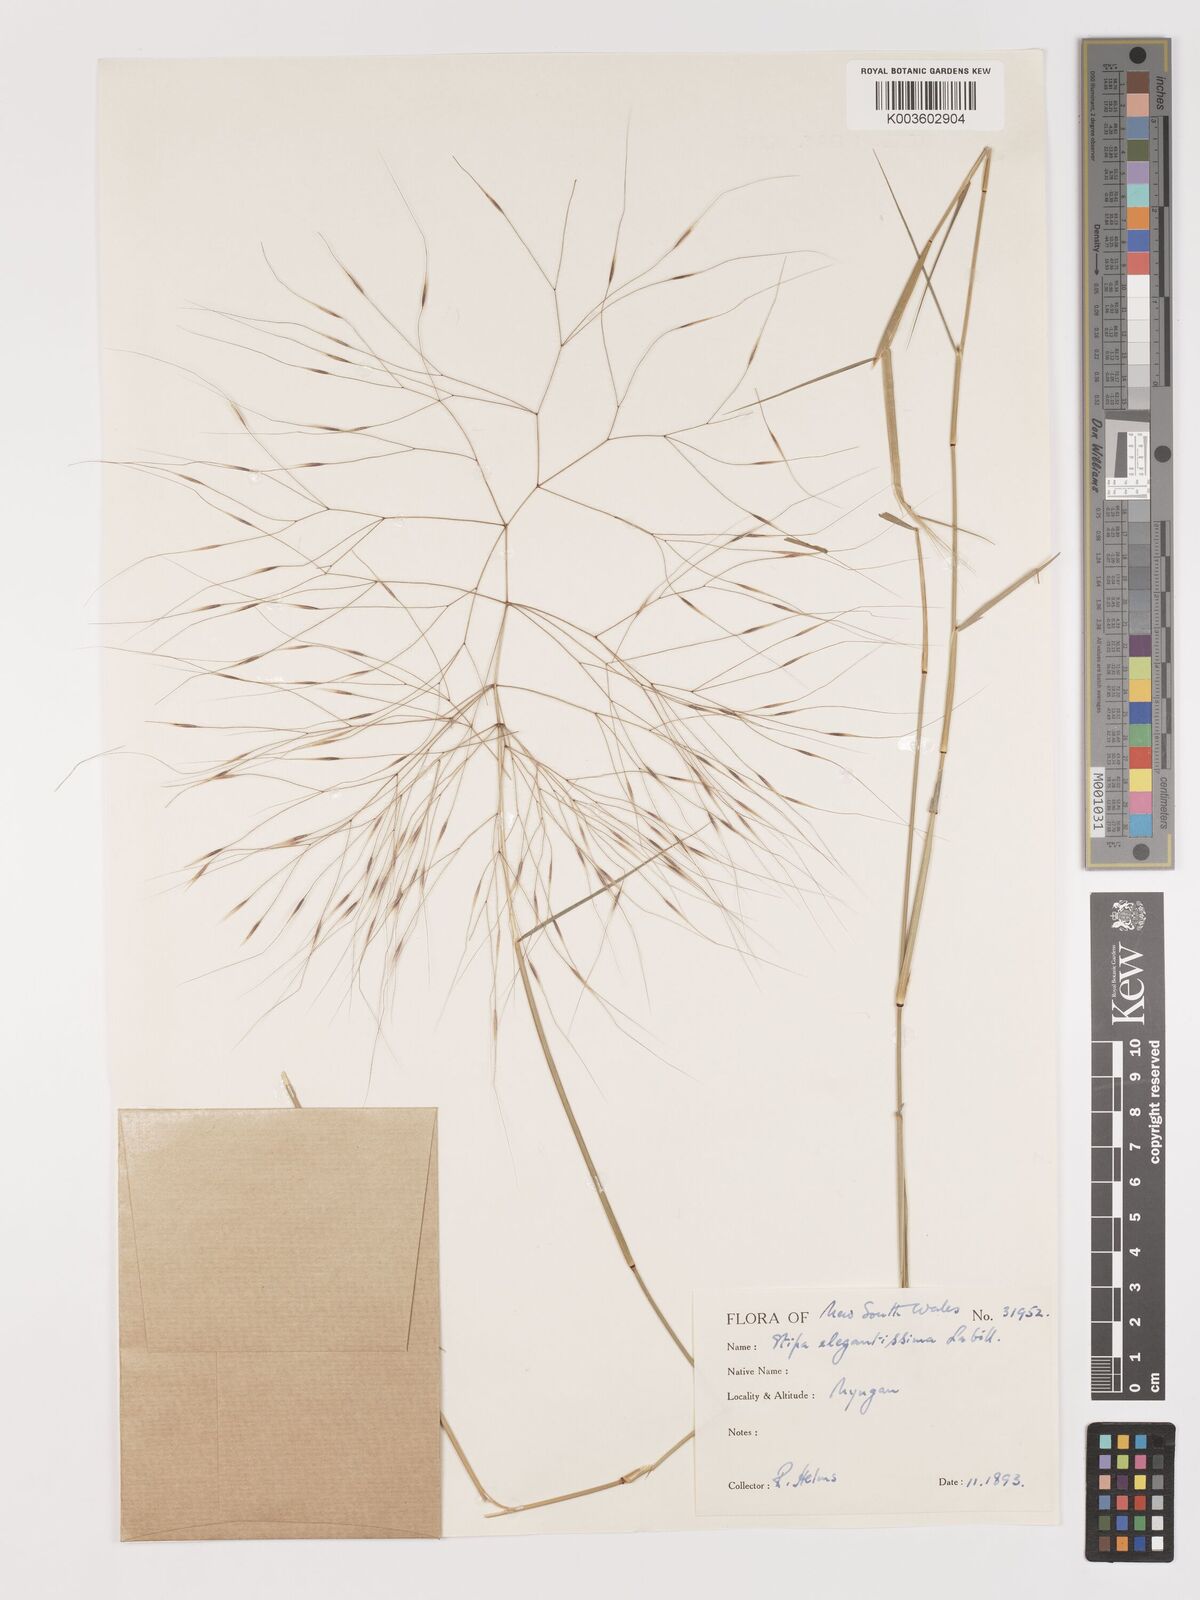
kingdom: Plantae
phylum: Tracheophyta
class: Liliopsida
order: Poales
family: Poaceae
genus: Austrostipa
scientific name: Austrostipa elegantissima
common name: Feather spear grass
